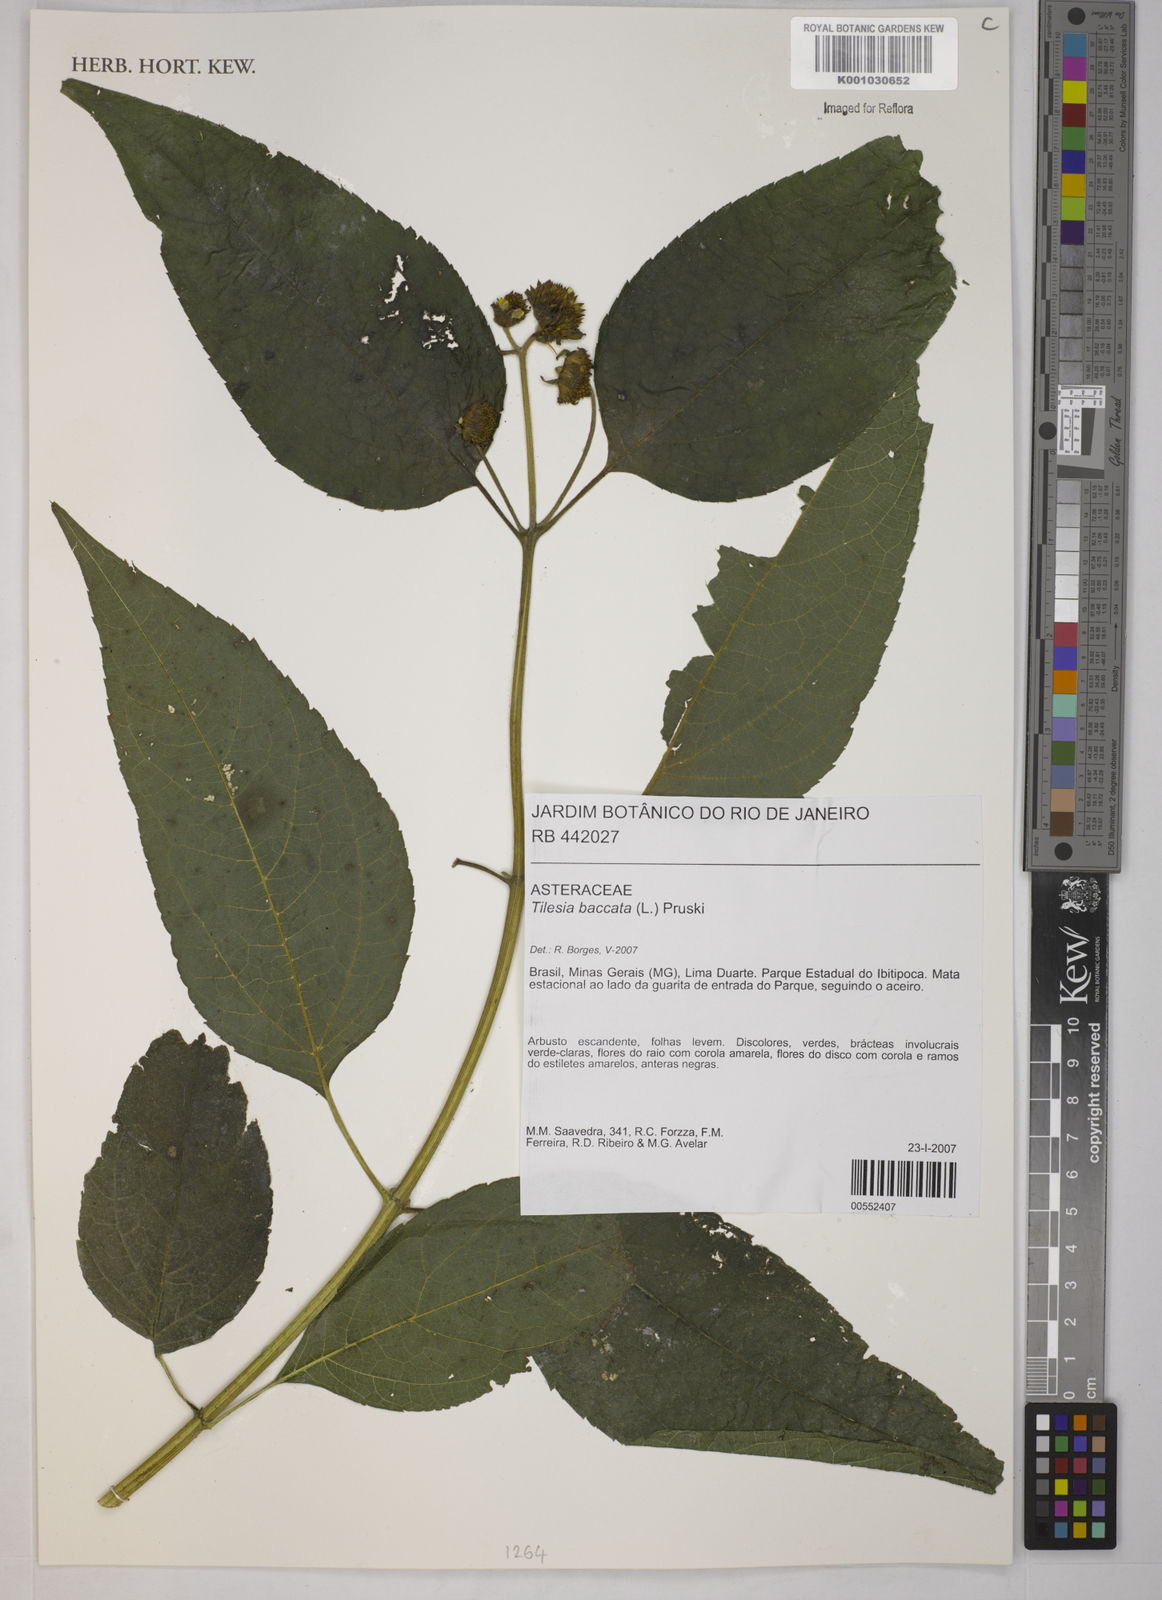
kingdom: Plantae
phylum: Tracheophyta
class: Magnoliopsida
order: Asterales
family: Asteraceae
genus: Tilesia
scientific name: Tilesia baccata
